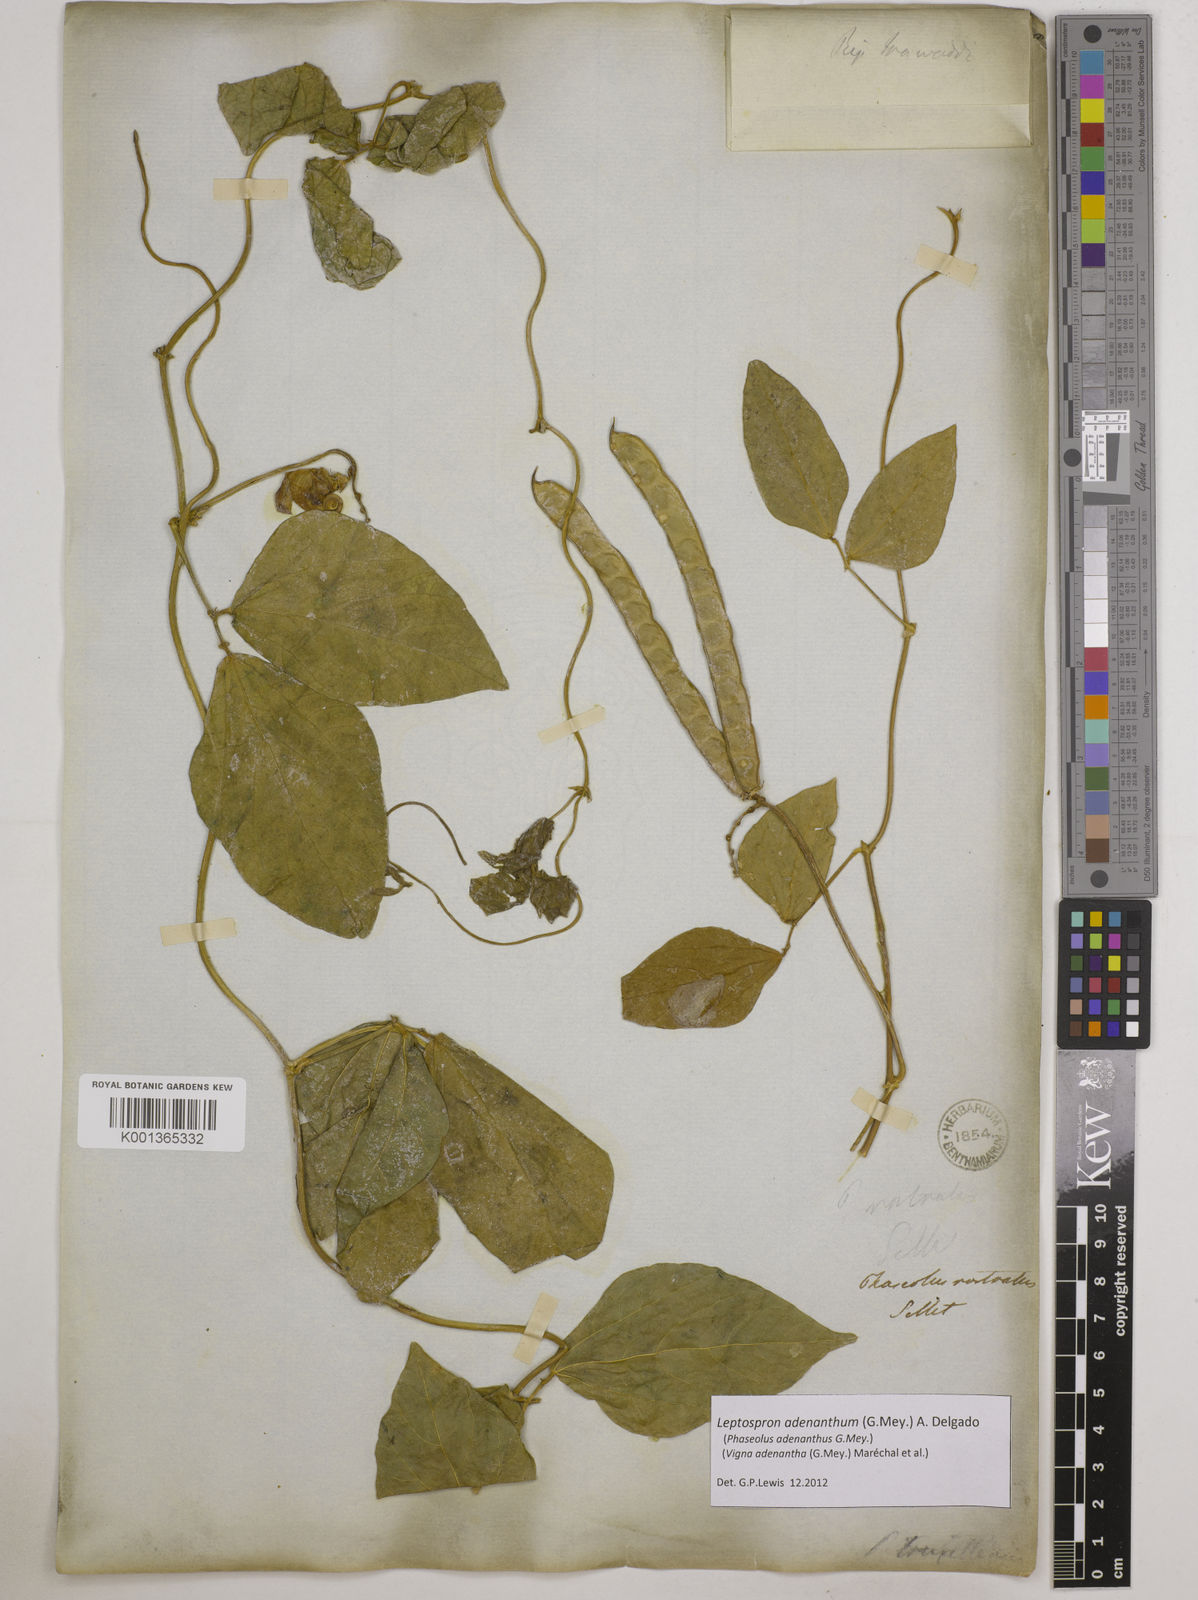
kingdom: Plantae
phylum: Tracheophyta
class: Magnoliopsida
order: Fabales
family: Fabaceae
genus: Leptospron
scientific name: Leptospron adenanthum
